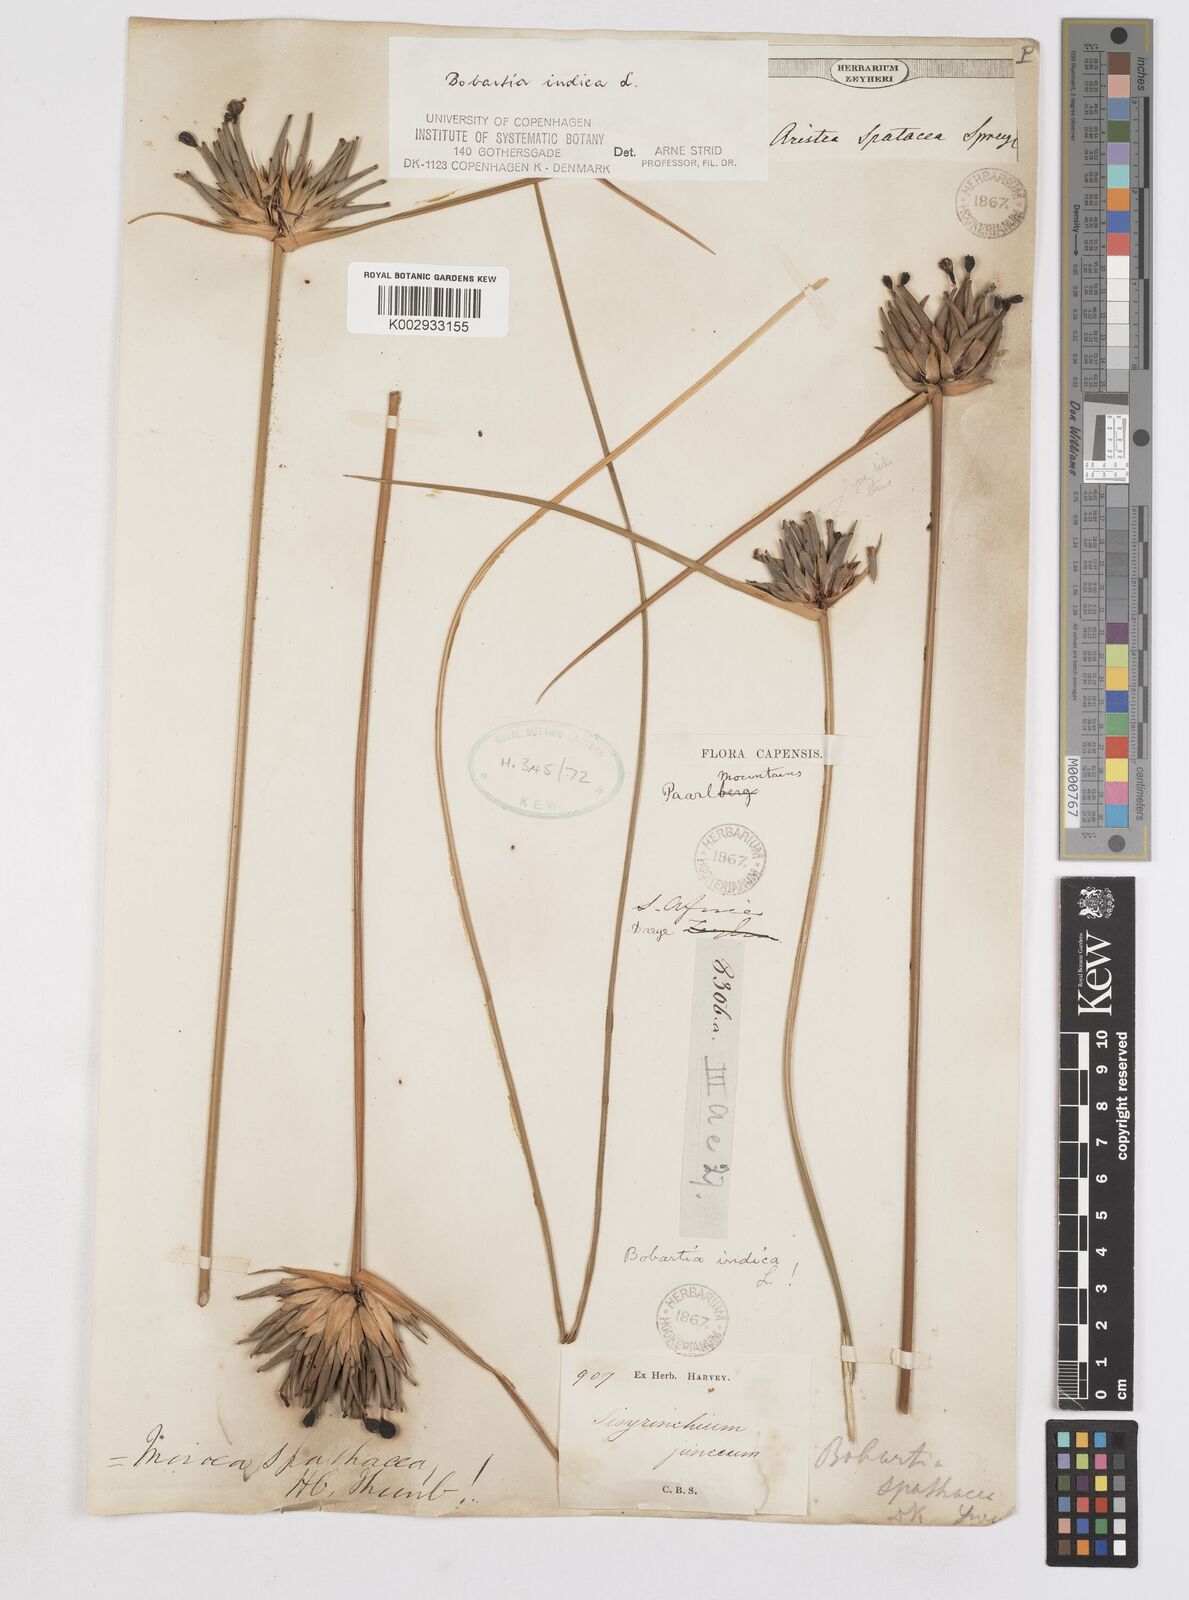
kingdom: Plantae
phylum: Tracheophyta
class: Liliopsida
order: Asparagales
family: Iridaceae
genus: Bobartia
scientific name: Bobartia indica
